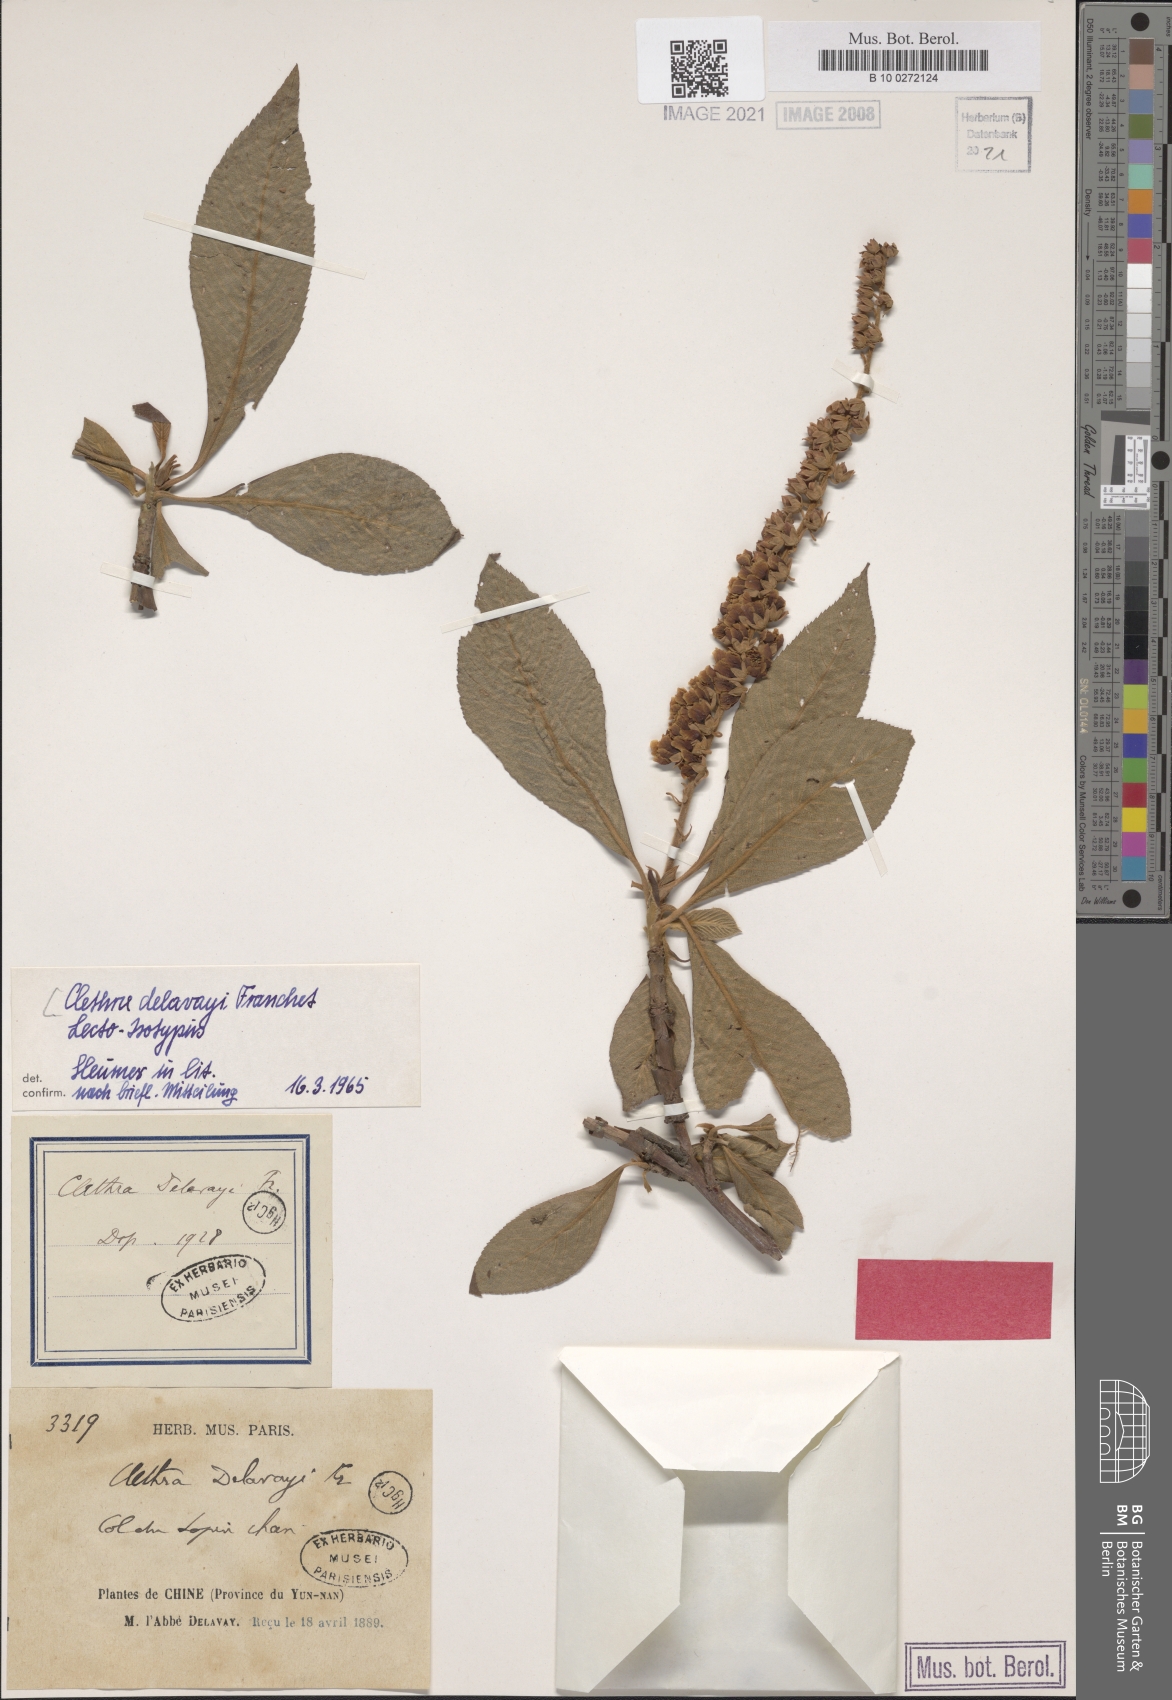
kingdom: Plantae
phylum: Tracheophyta
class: Magnoliopsida
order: Ericales
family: Clethraceae
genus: Clethra
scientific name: Clethra delavayi
